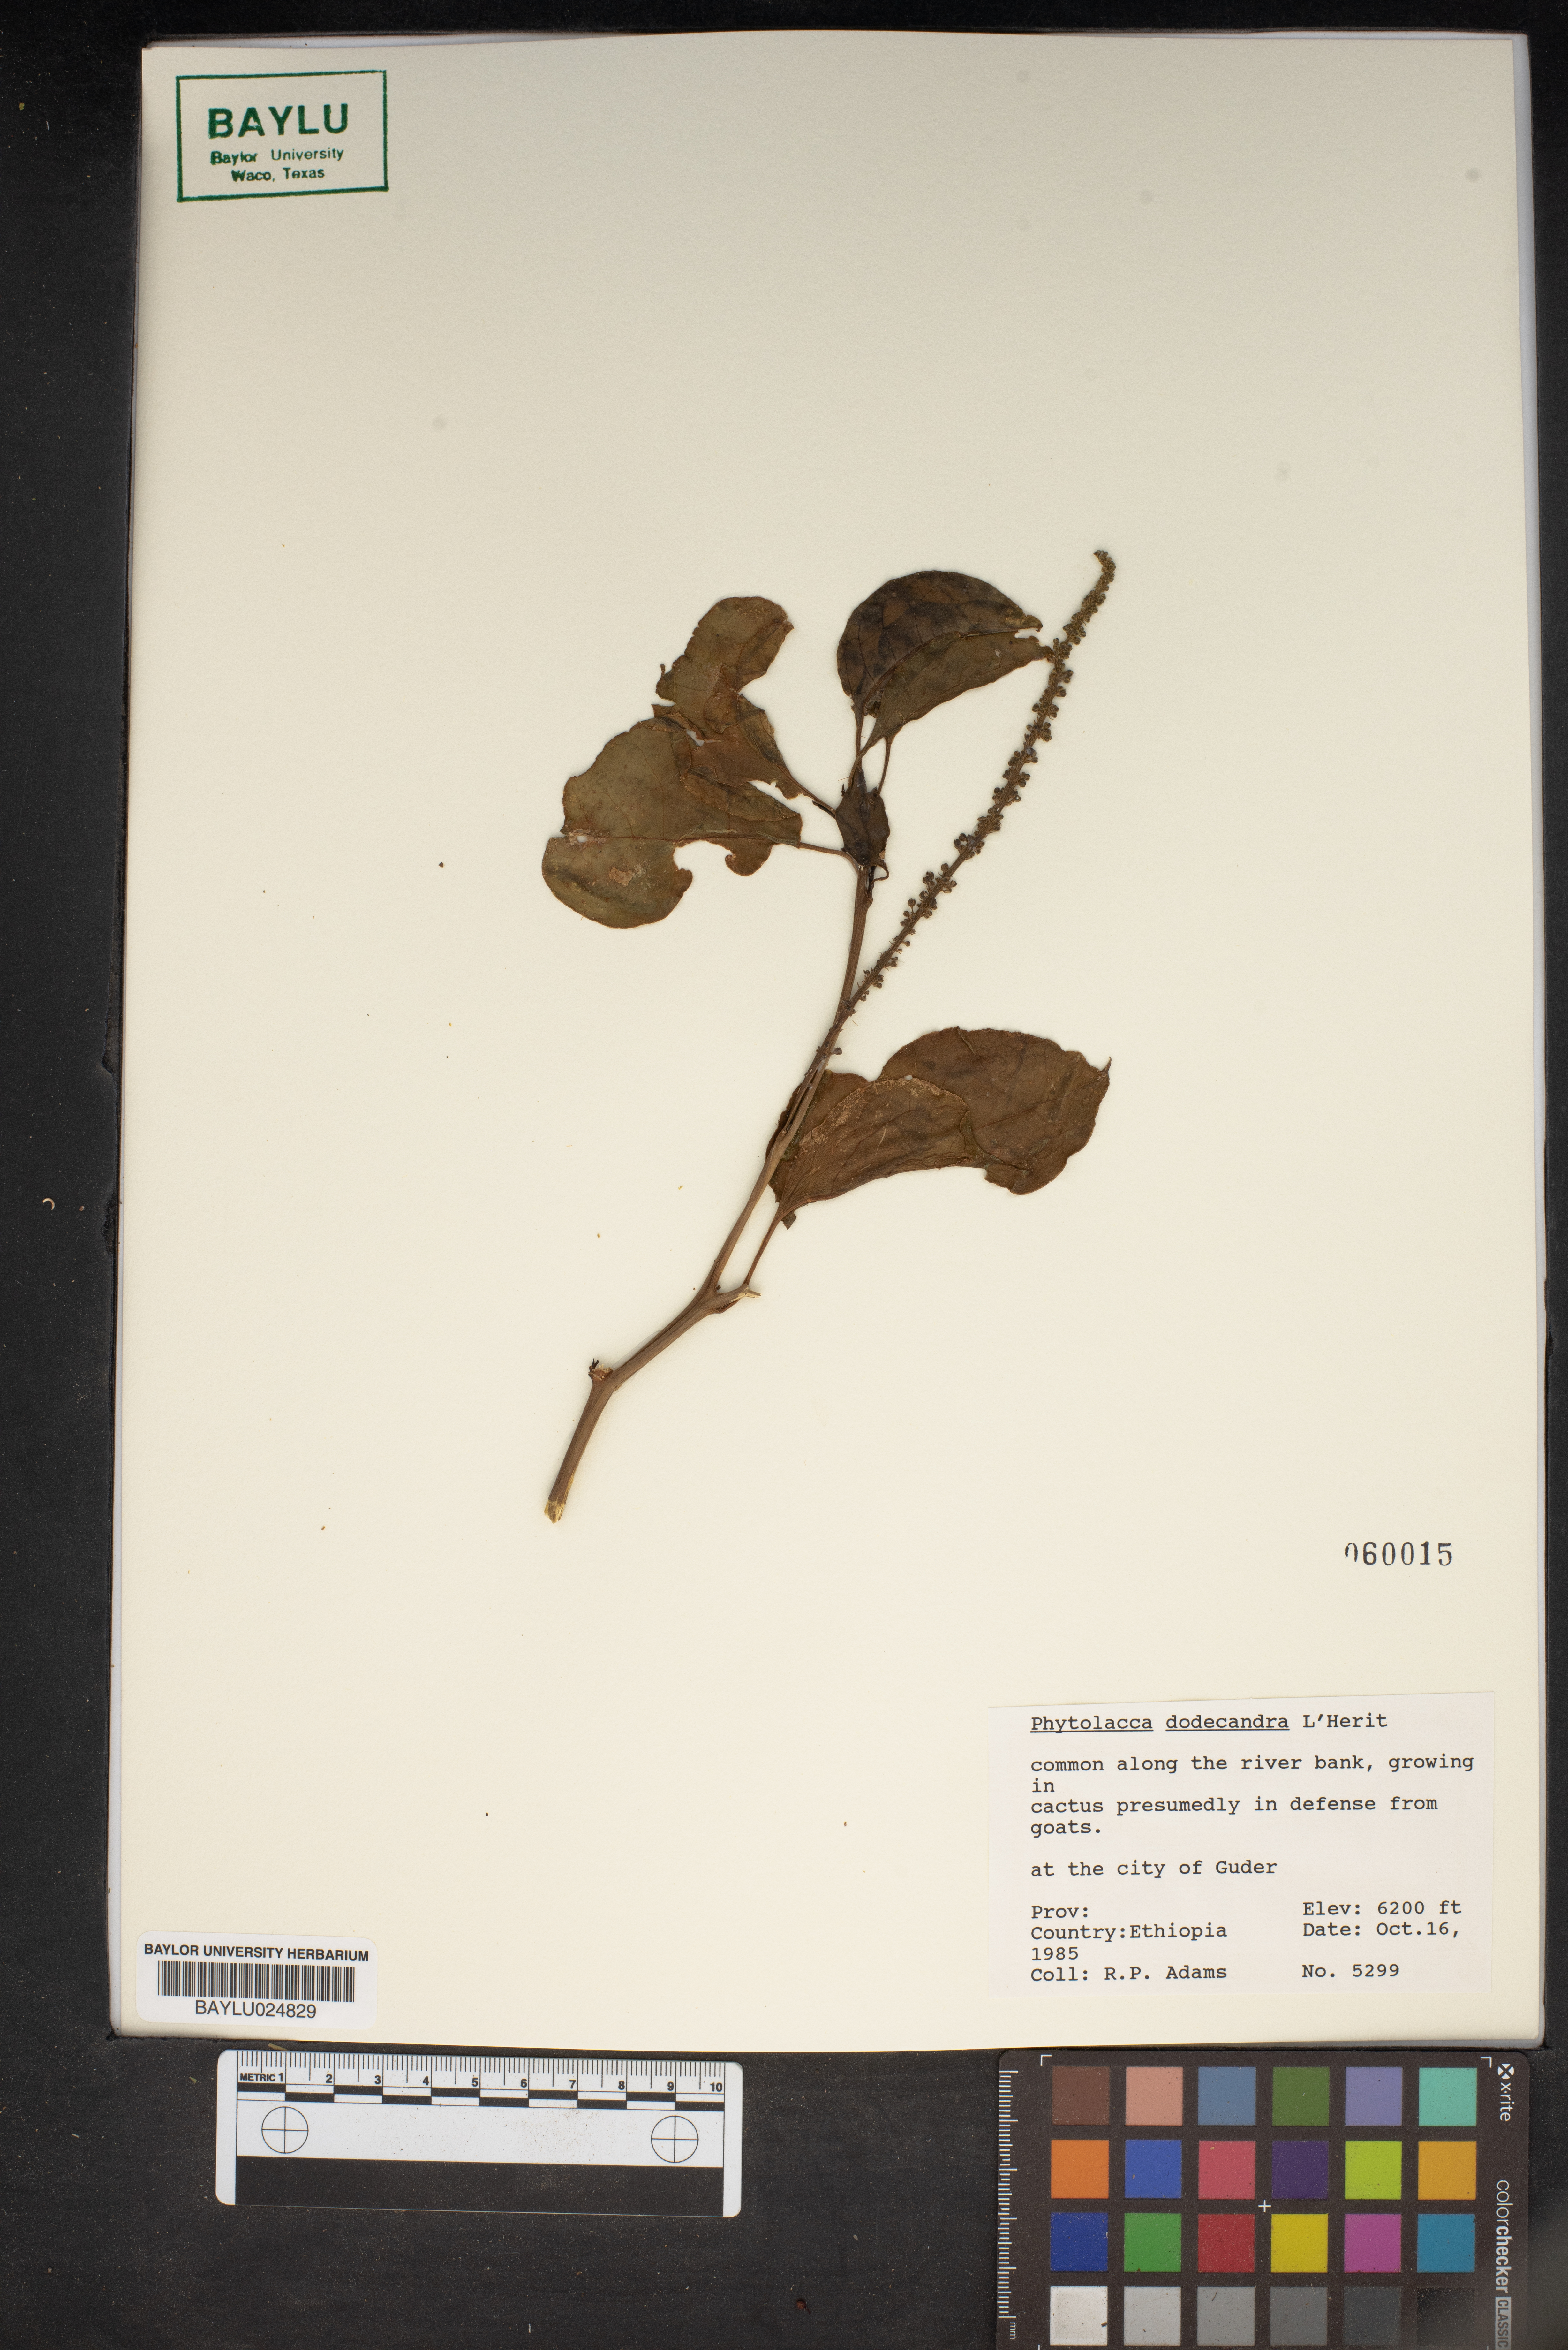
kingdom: Plantae
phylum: Tracheophyta
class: Magnoliopsida
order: Caryophyllales
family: Phytolaccaceae
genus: Phytolacca
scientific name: Phytolacca dodecandra
